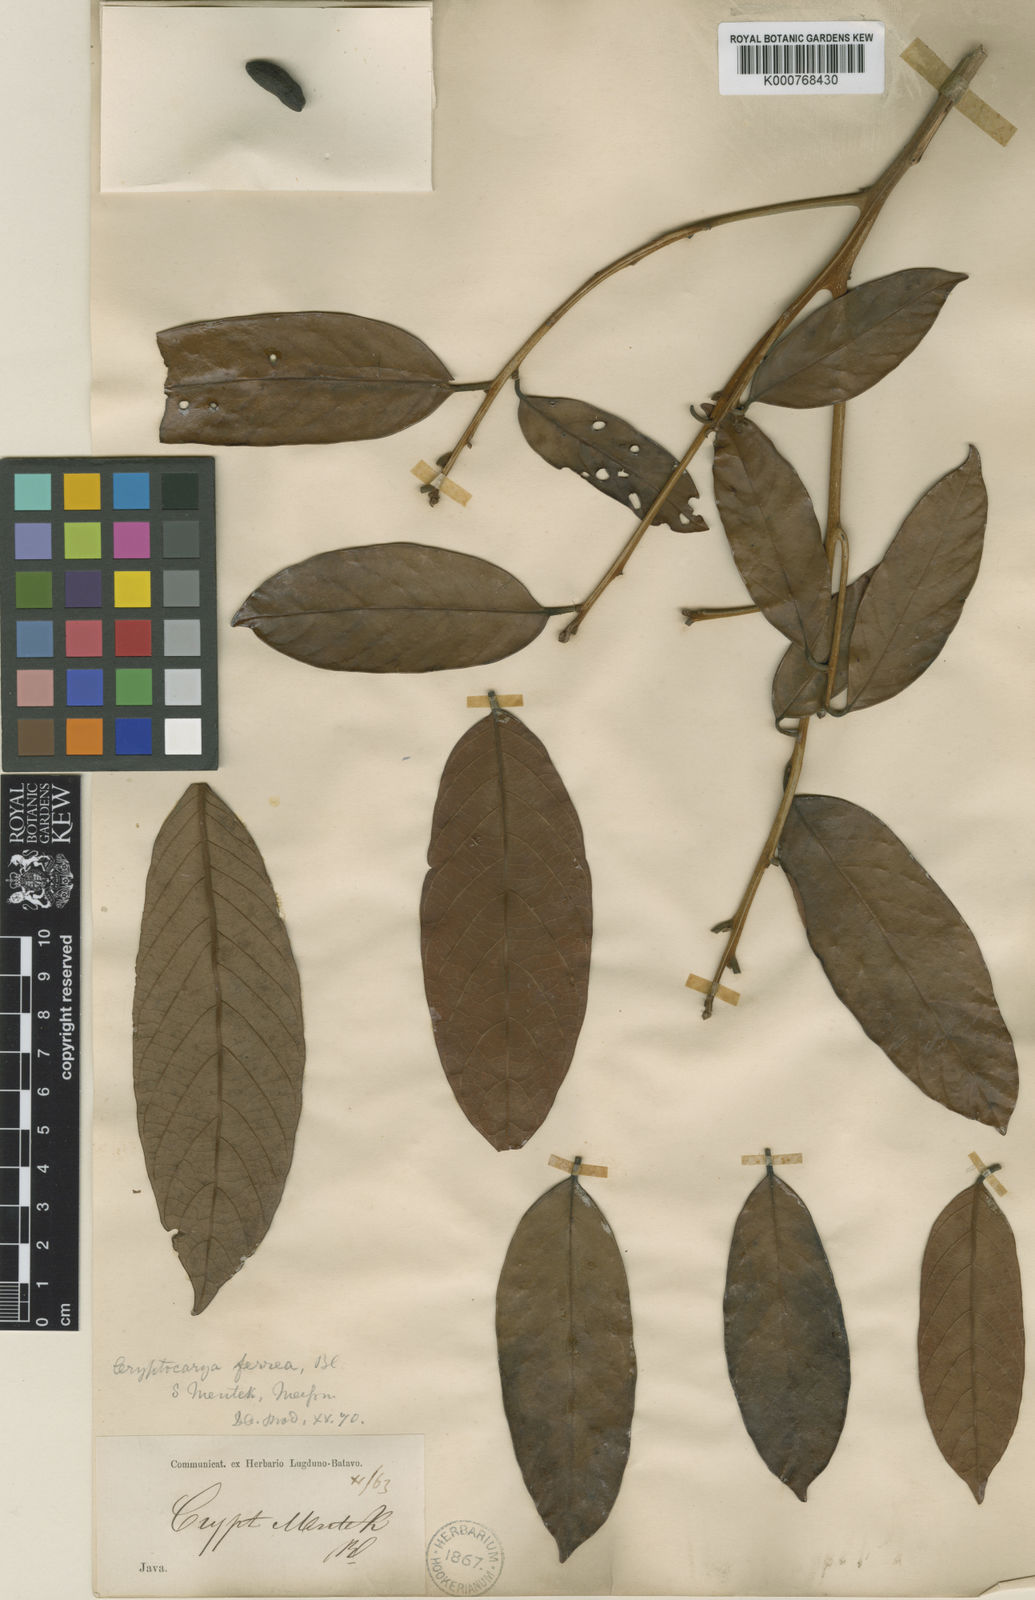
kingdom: Plantae
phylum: Tracheophyta
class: Magnoliopsida
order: Laurales
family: Lauraceae
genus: Cryptocarya
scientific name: Cryptocarya ferrea
